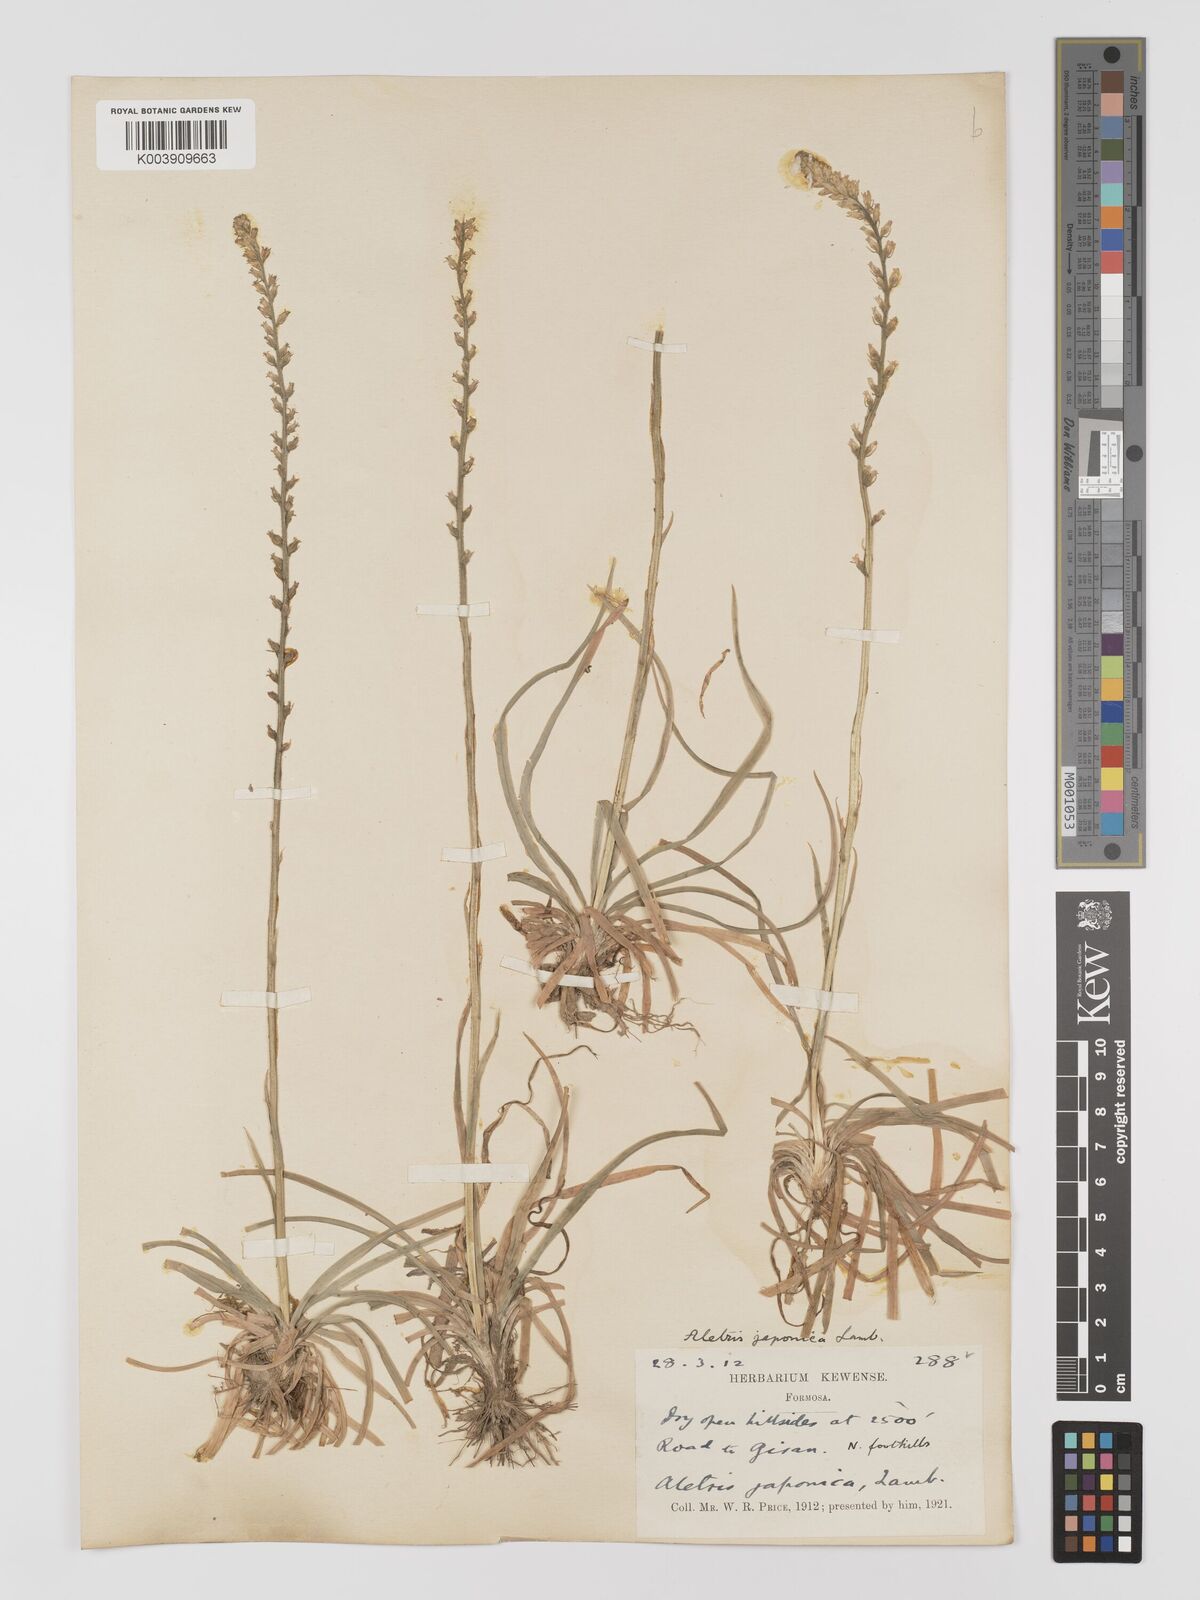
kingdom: Plantae
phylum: Tracheophyta
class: Liliopsida
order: Dioscoreales
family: Nartheciaceae
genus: Aletris
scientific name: Aletris spicata
